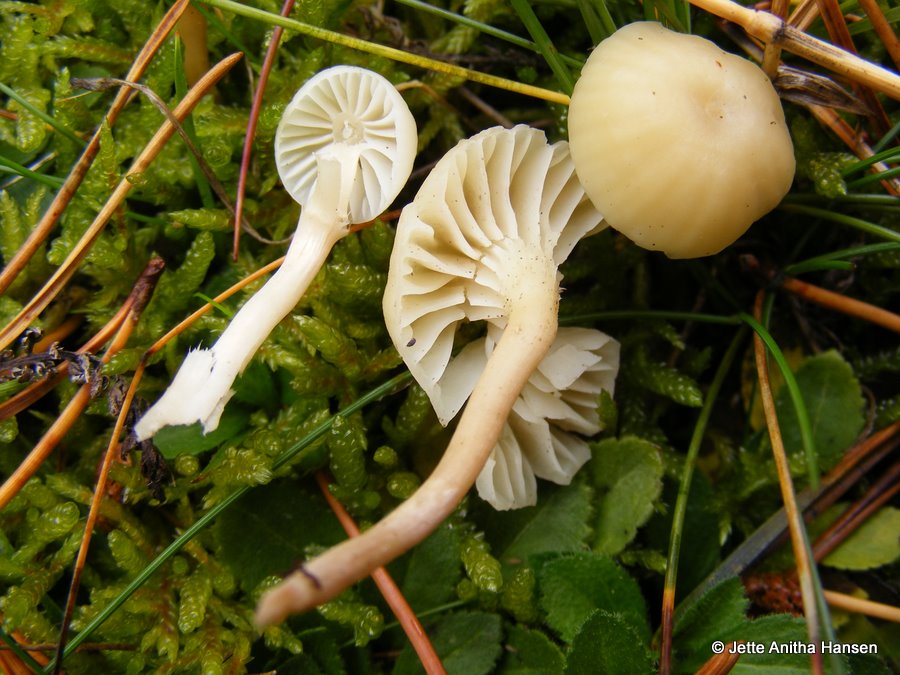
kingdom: Fungi
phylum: Basidiomycota
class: Agaricomycetes
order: Agaricales
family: Hygrophoraceae
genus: Cuphophyllus
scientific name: Cuphophyllus russocoriaceus
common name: ruslæder-vokshat
